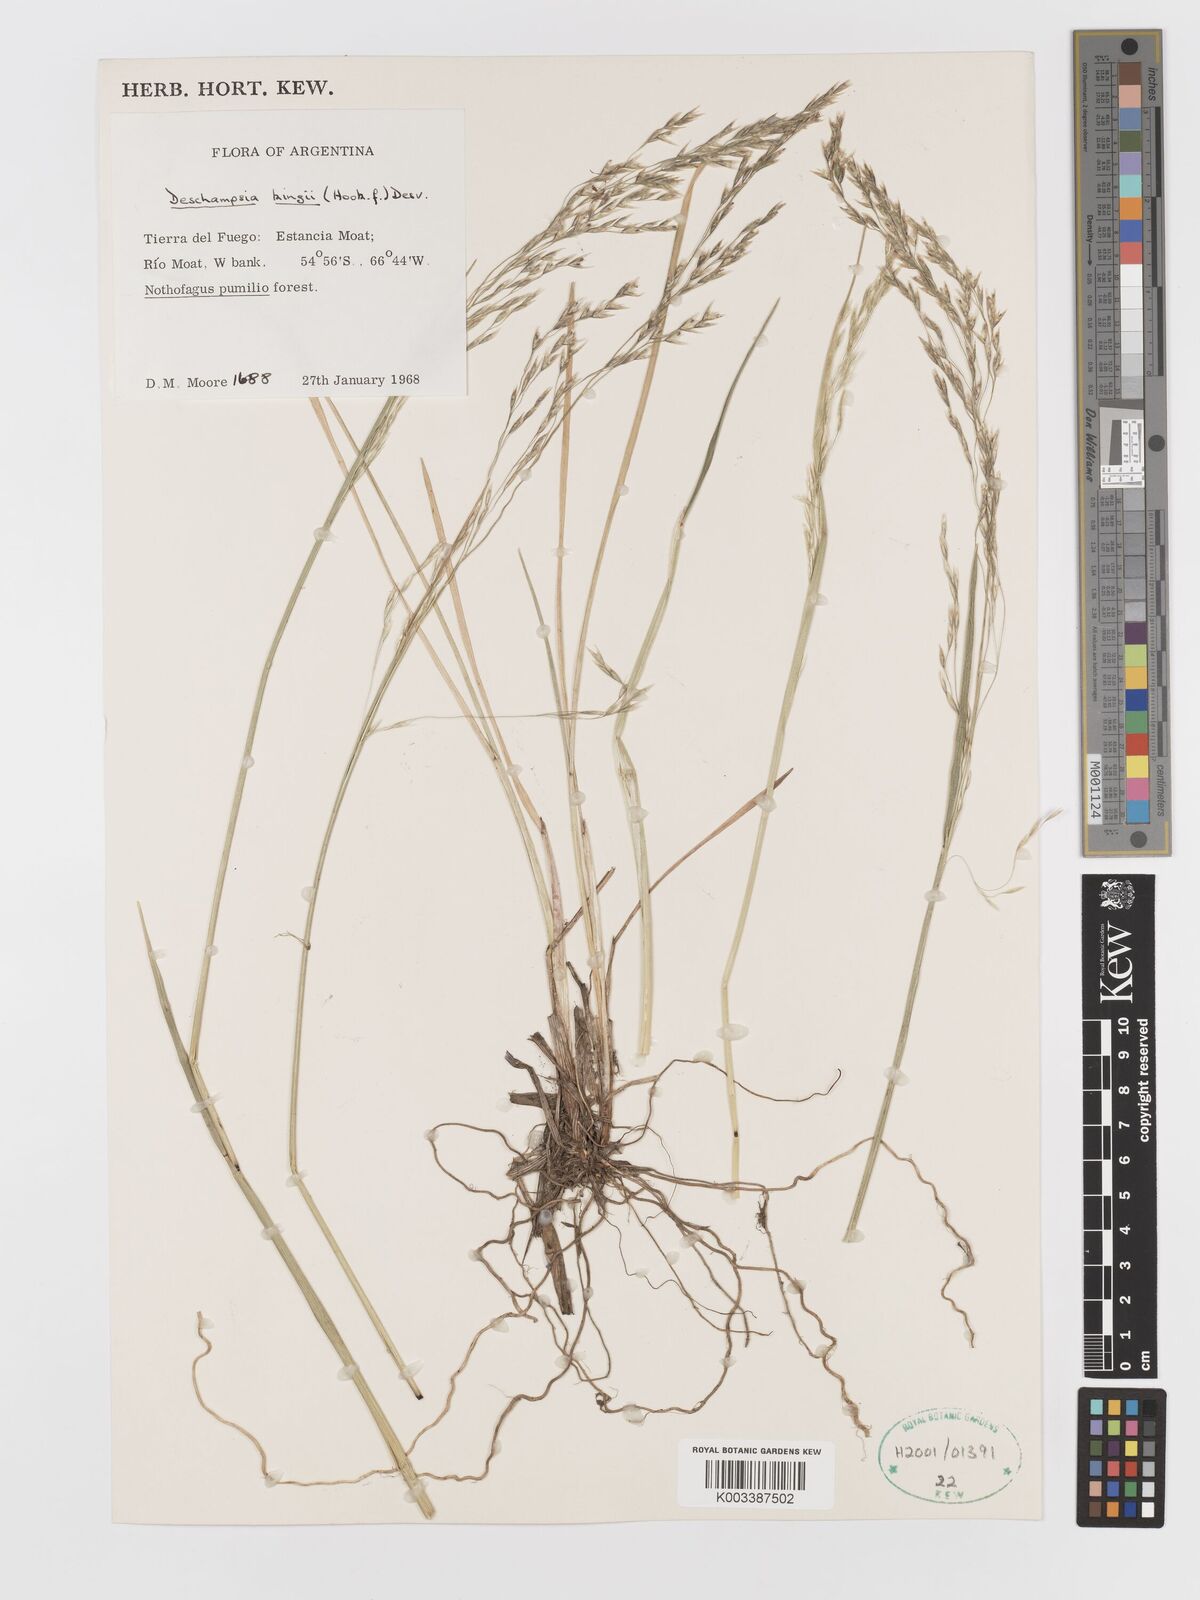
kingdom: Plantae
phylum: Tracheophyta
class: Liliopsida
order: Poales
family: Poaceae
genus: Deschampsia
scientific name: Deschampsia kingii
